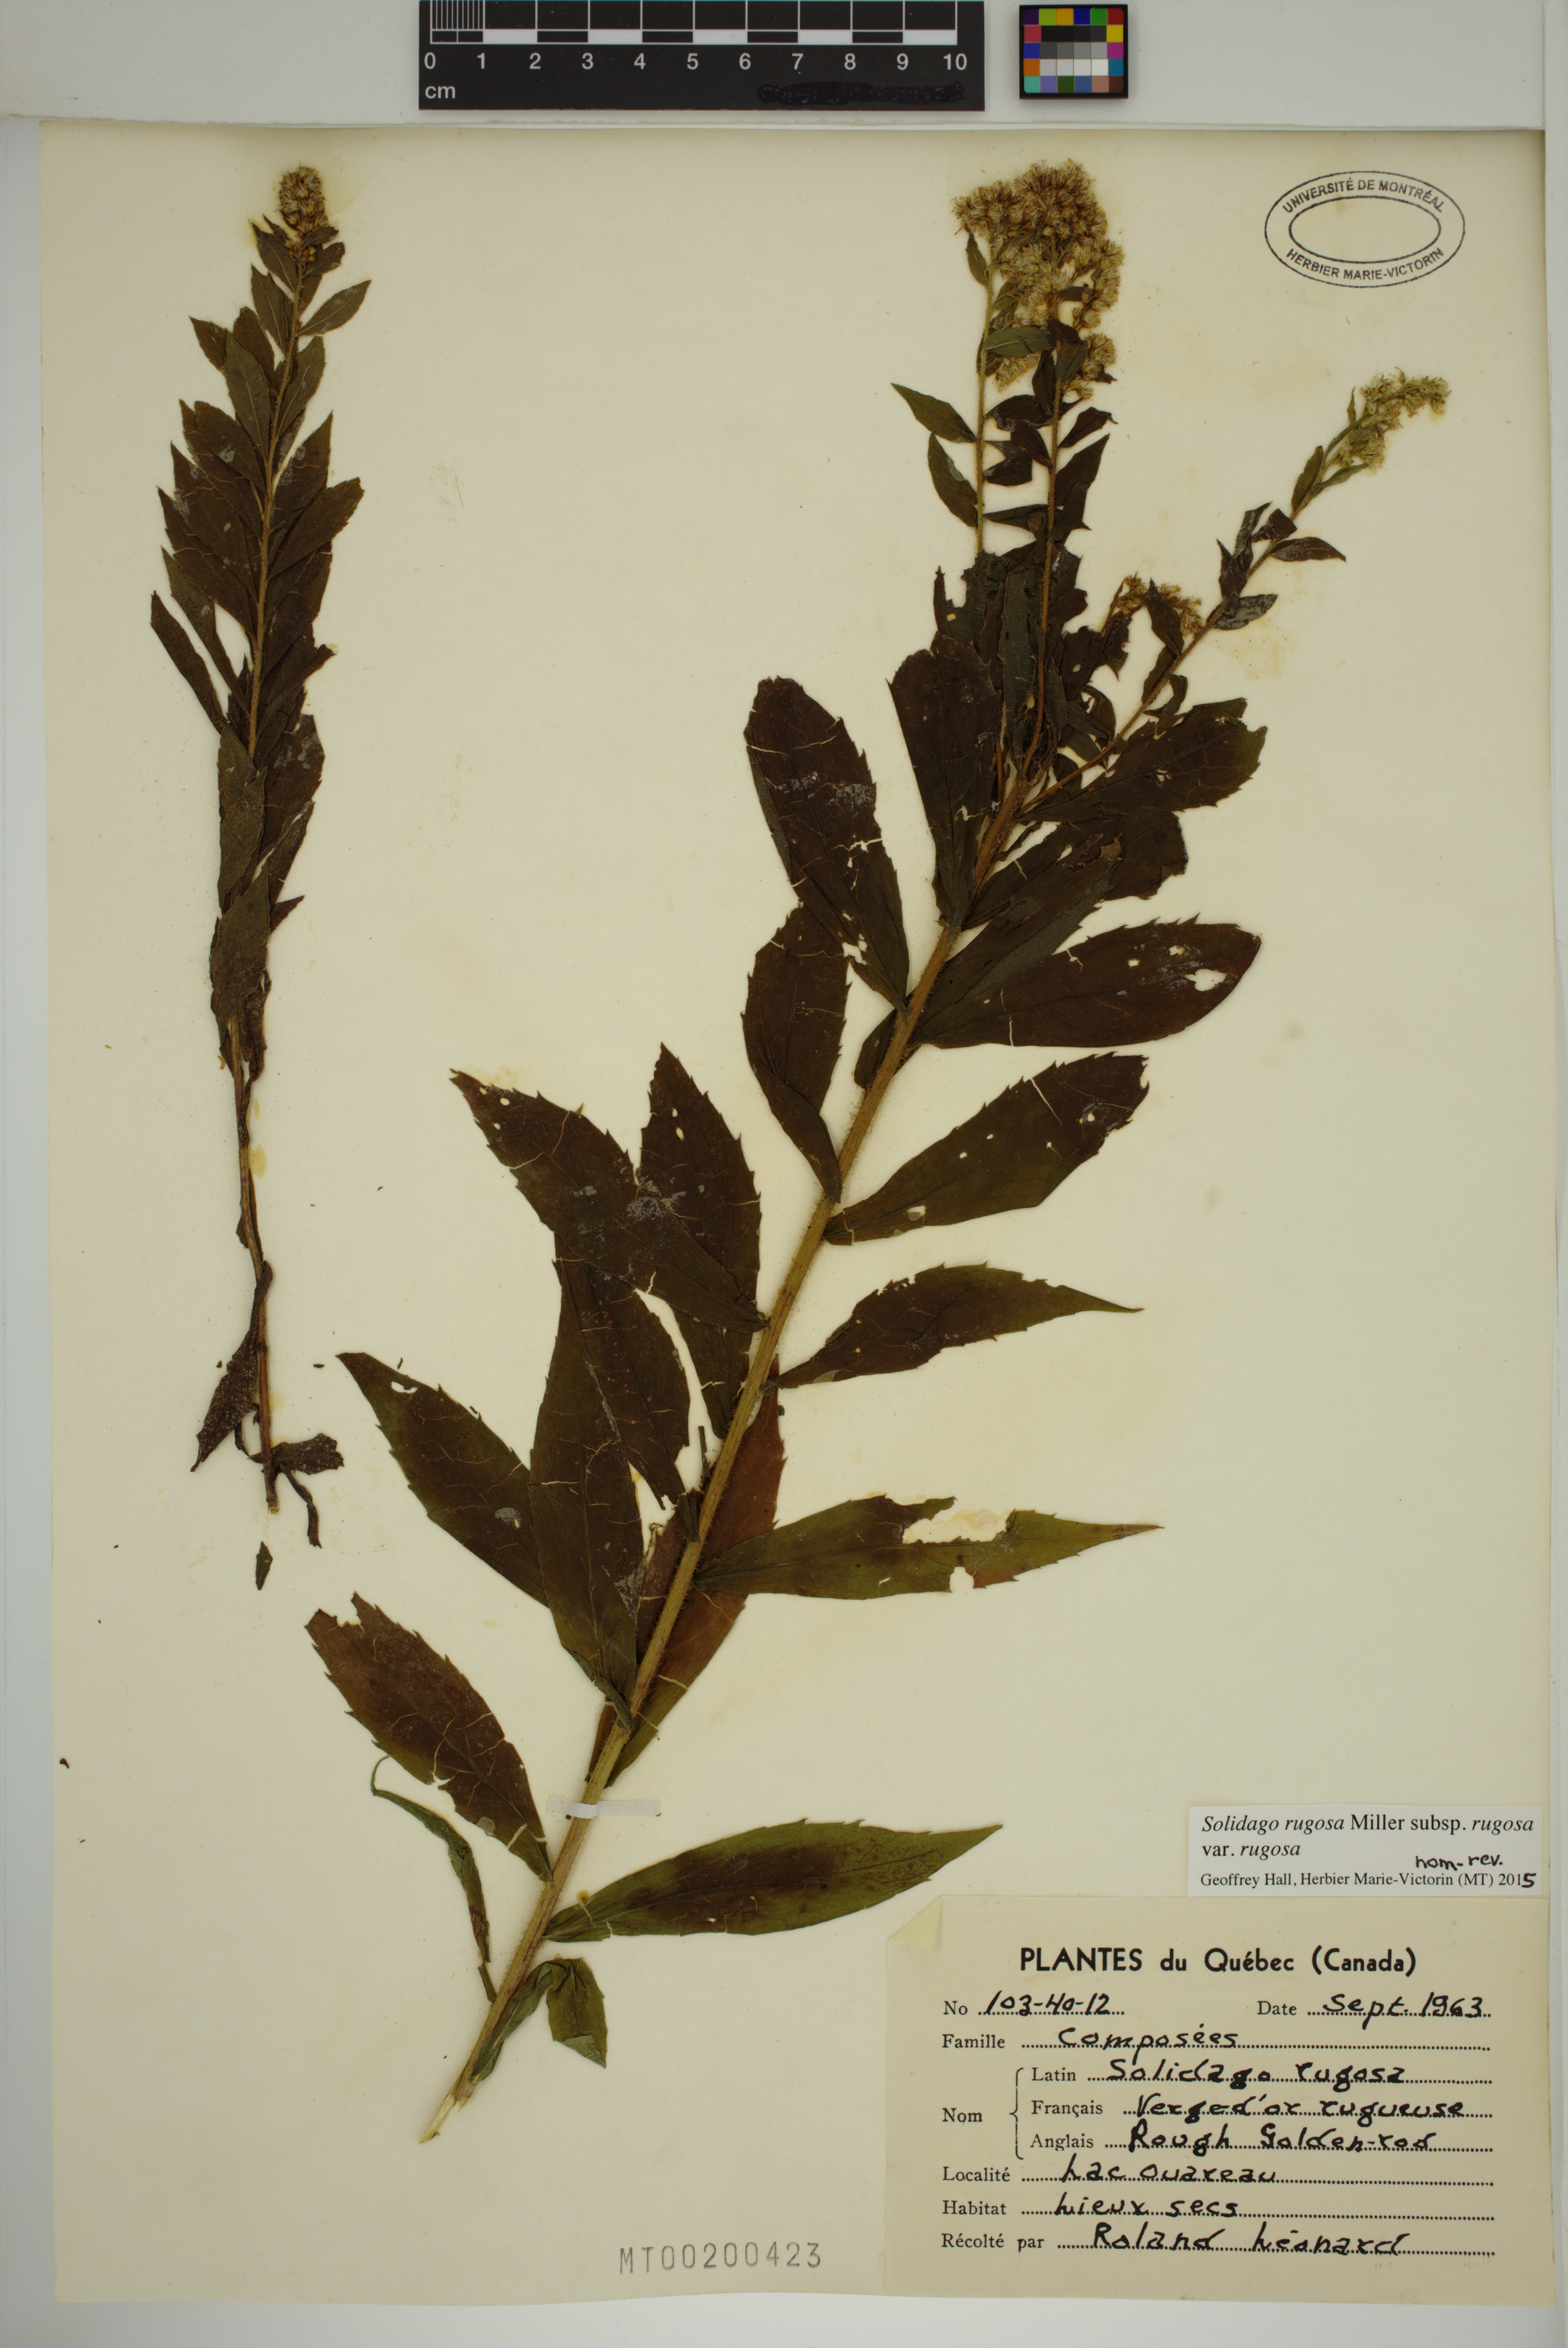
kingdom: Plantae
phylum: Tracheophyta
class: Magnoliopsida
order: Asterales
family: Asteraceae
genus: Solidago
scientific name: Solidago rugosa
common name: Rough-stemmed goldenrod
